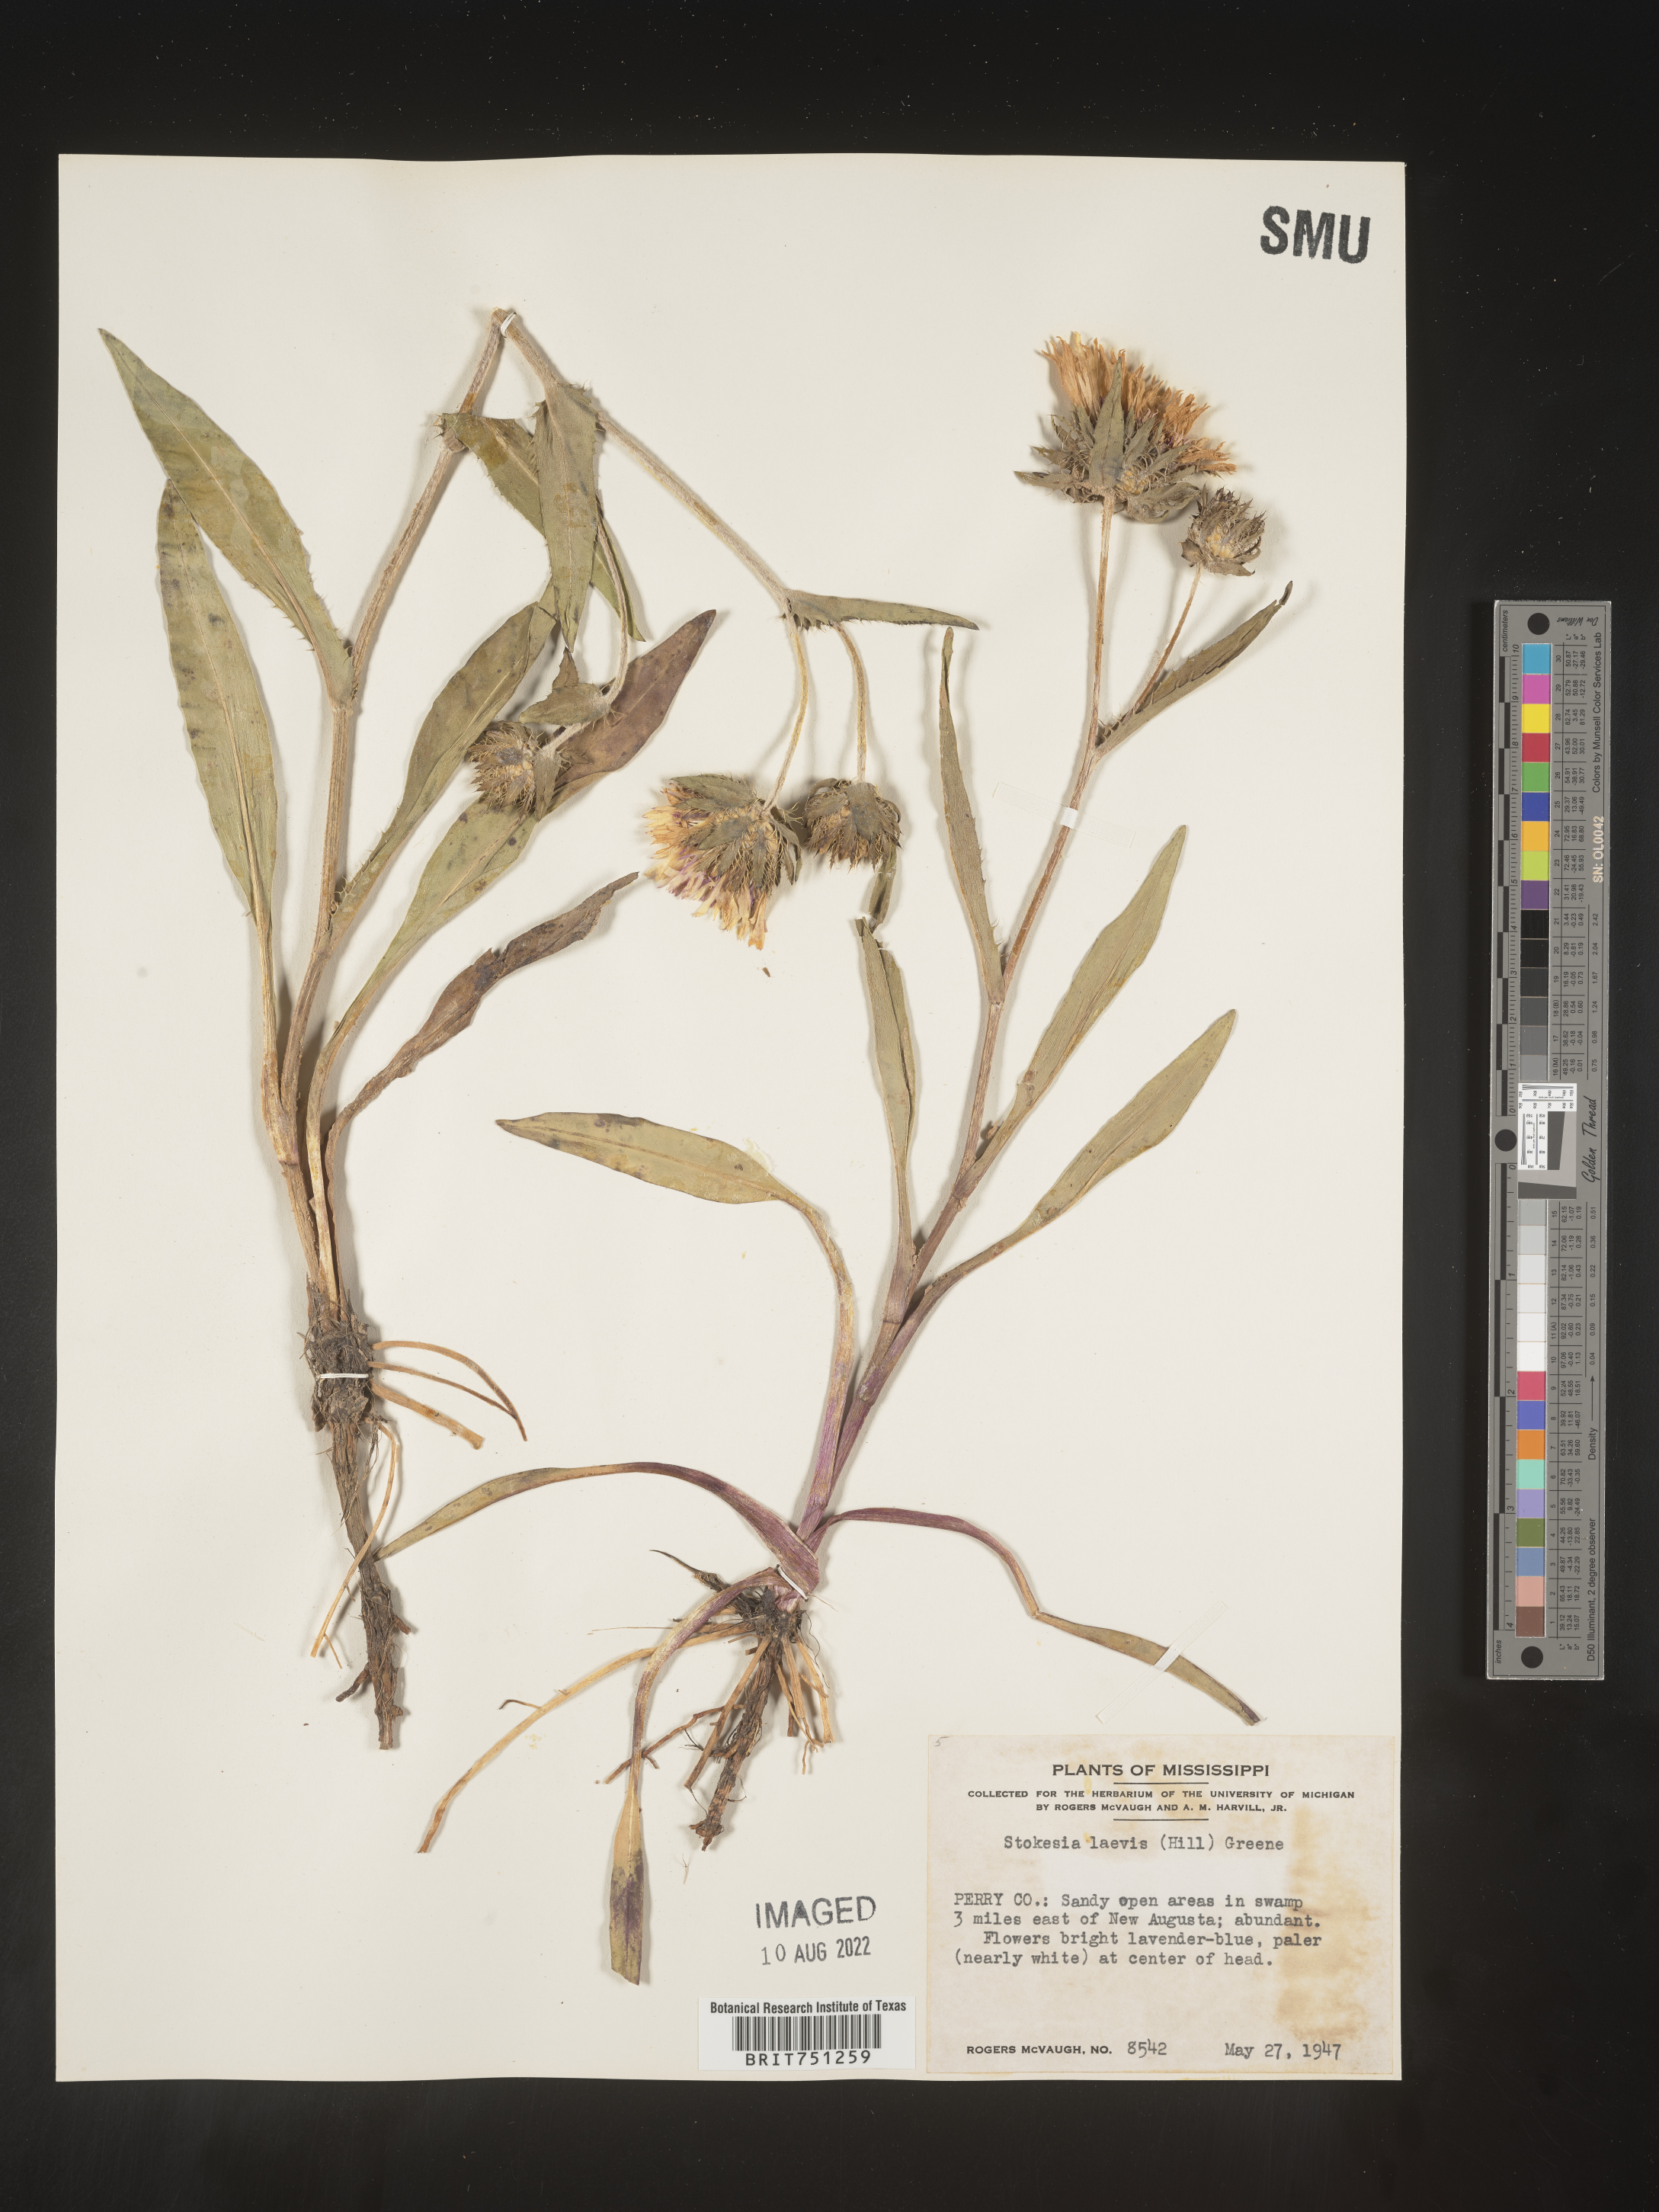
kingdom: Plantae
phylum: Tracheophyta
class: Magnoliopsida
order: Asterales
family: Asteraceae
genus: Stokesia
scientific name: Stokesia
